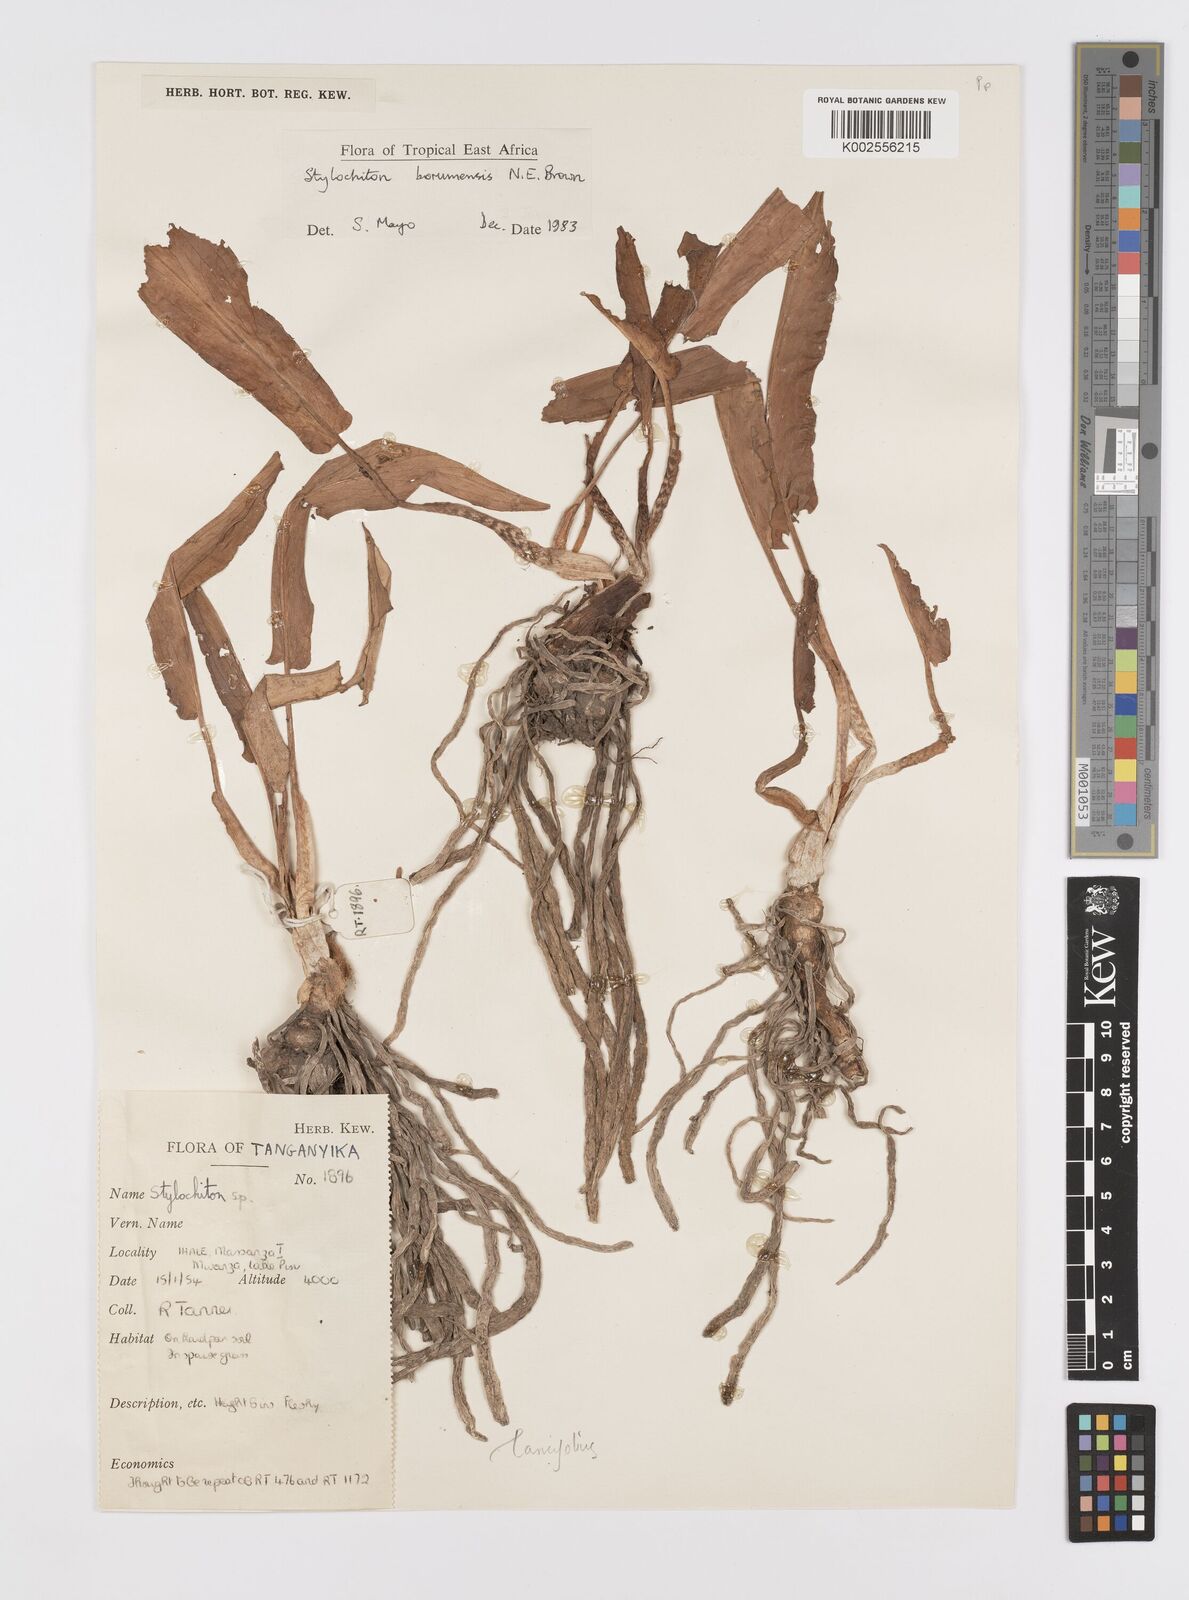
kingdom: Plantae
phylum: Tracheophyta
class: Liliopsida
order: Alismatales
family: Araceae
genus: Stylochaeton
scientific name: Stylochaeton borumense
